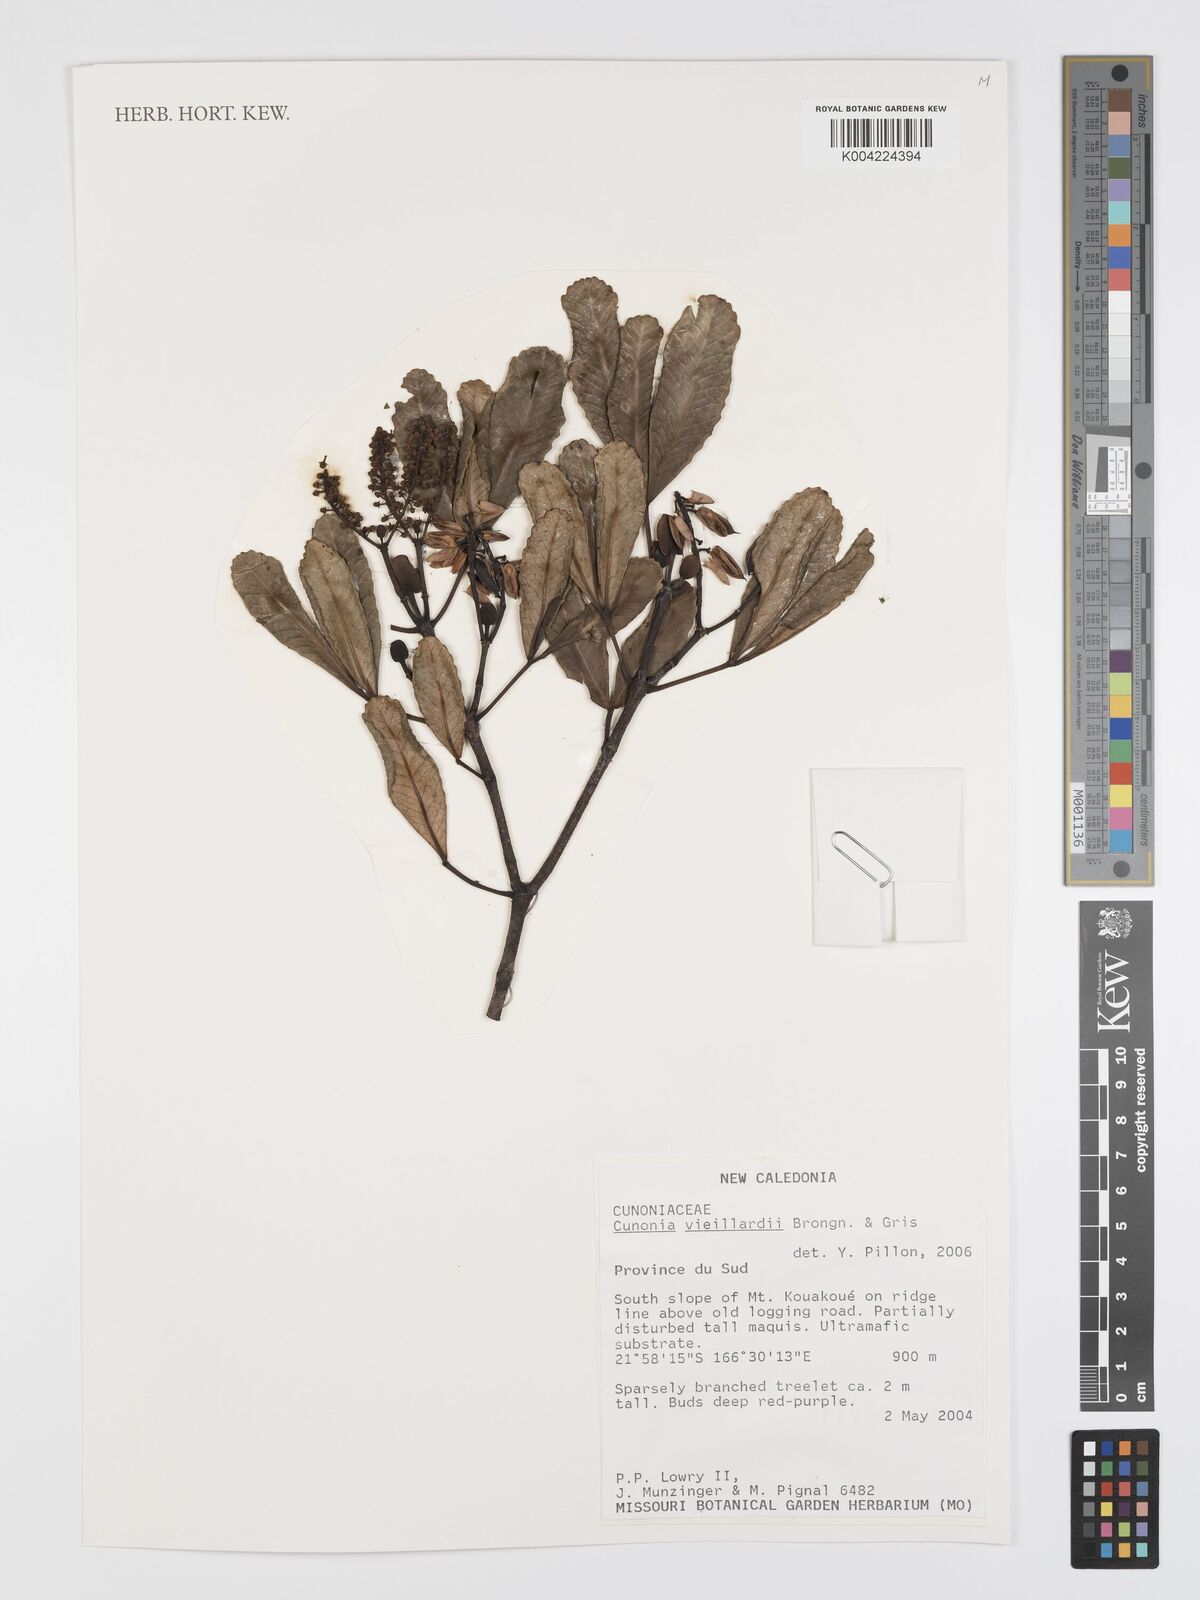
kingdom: Plantae
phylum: Tracheophyta
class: Magnoliopsida
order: Oxalidales
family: Cunoniaceae
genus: Cunonia
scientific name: Cunonia vieillardii
